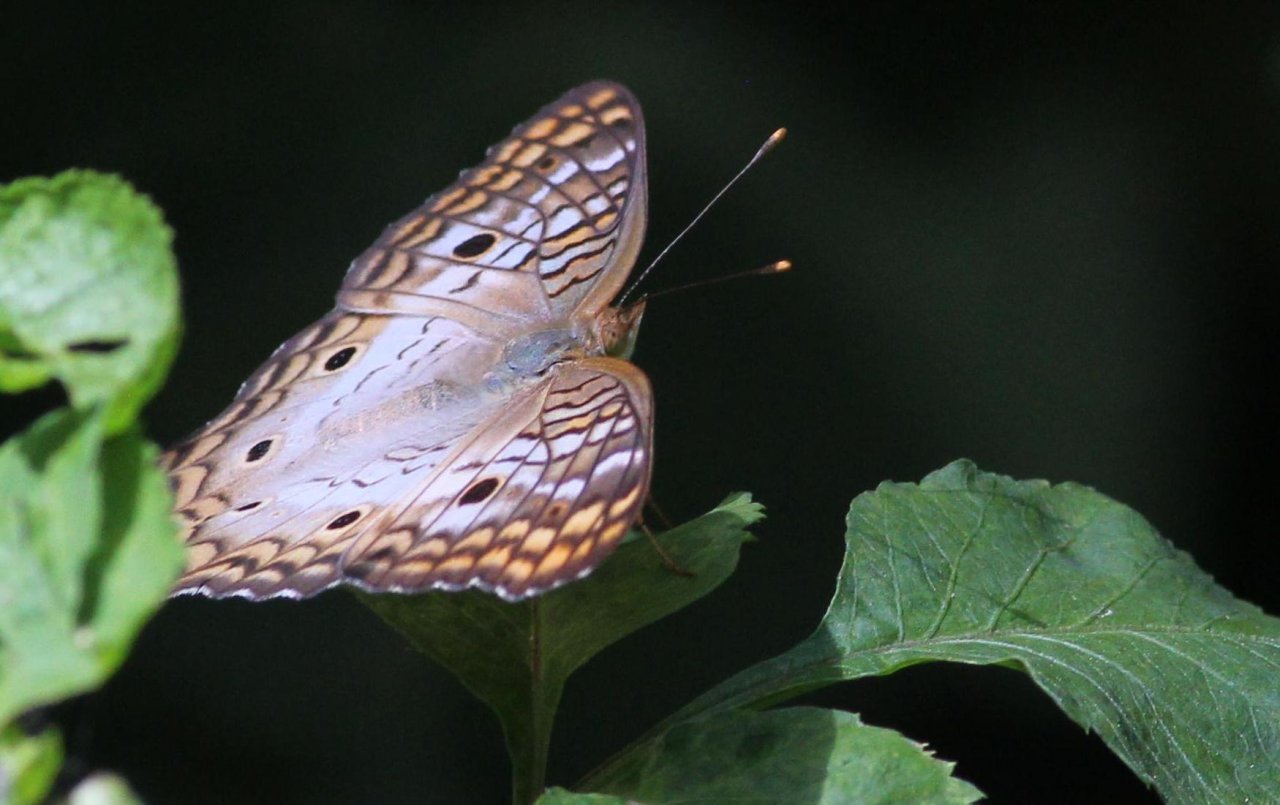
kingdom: Animalia
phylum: Arthropoda
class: Insecta
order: Lepidoptera
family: Nymphalidae
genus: Anartia
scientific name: Anartia jatrophae
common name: White Peacock
